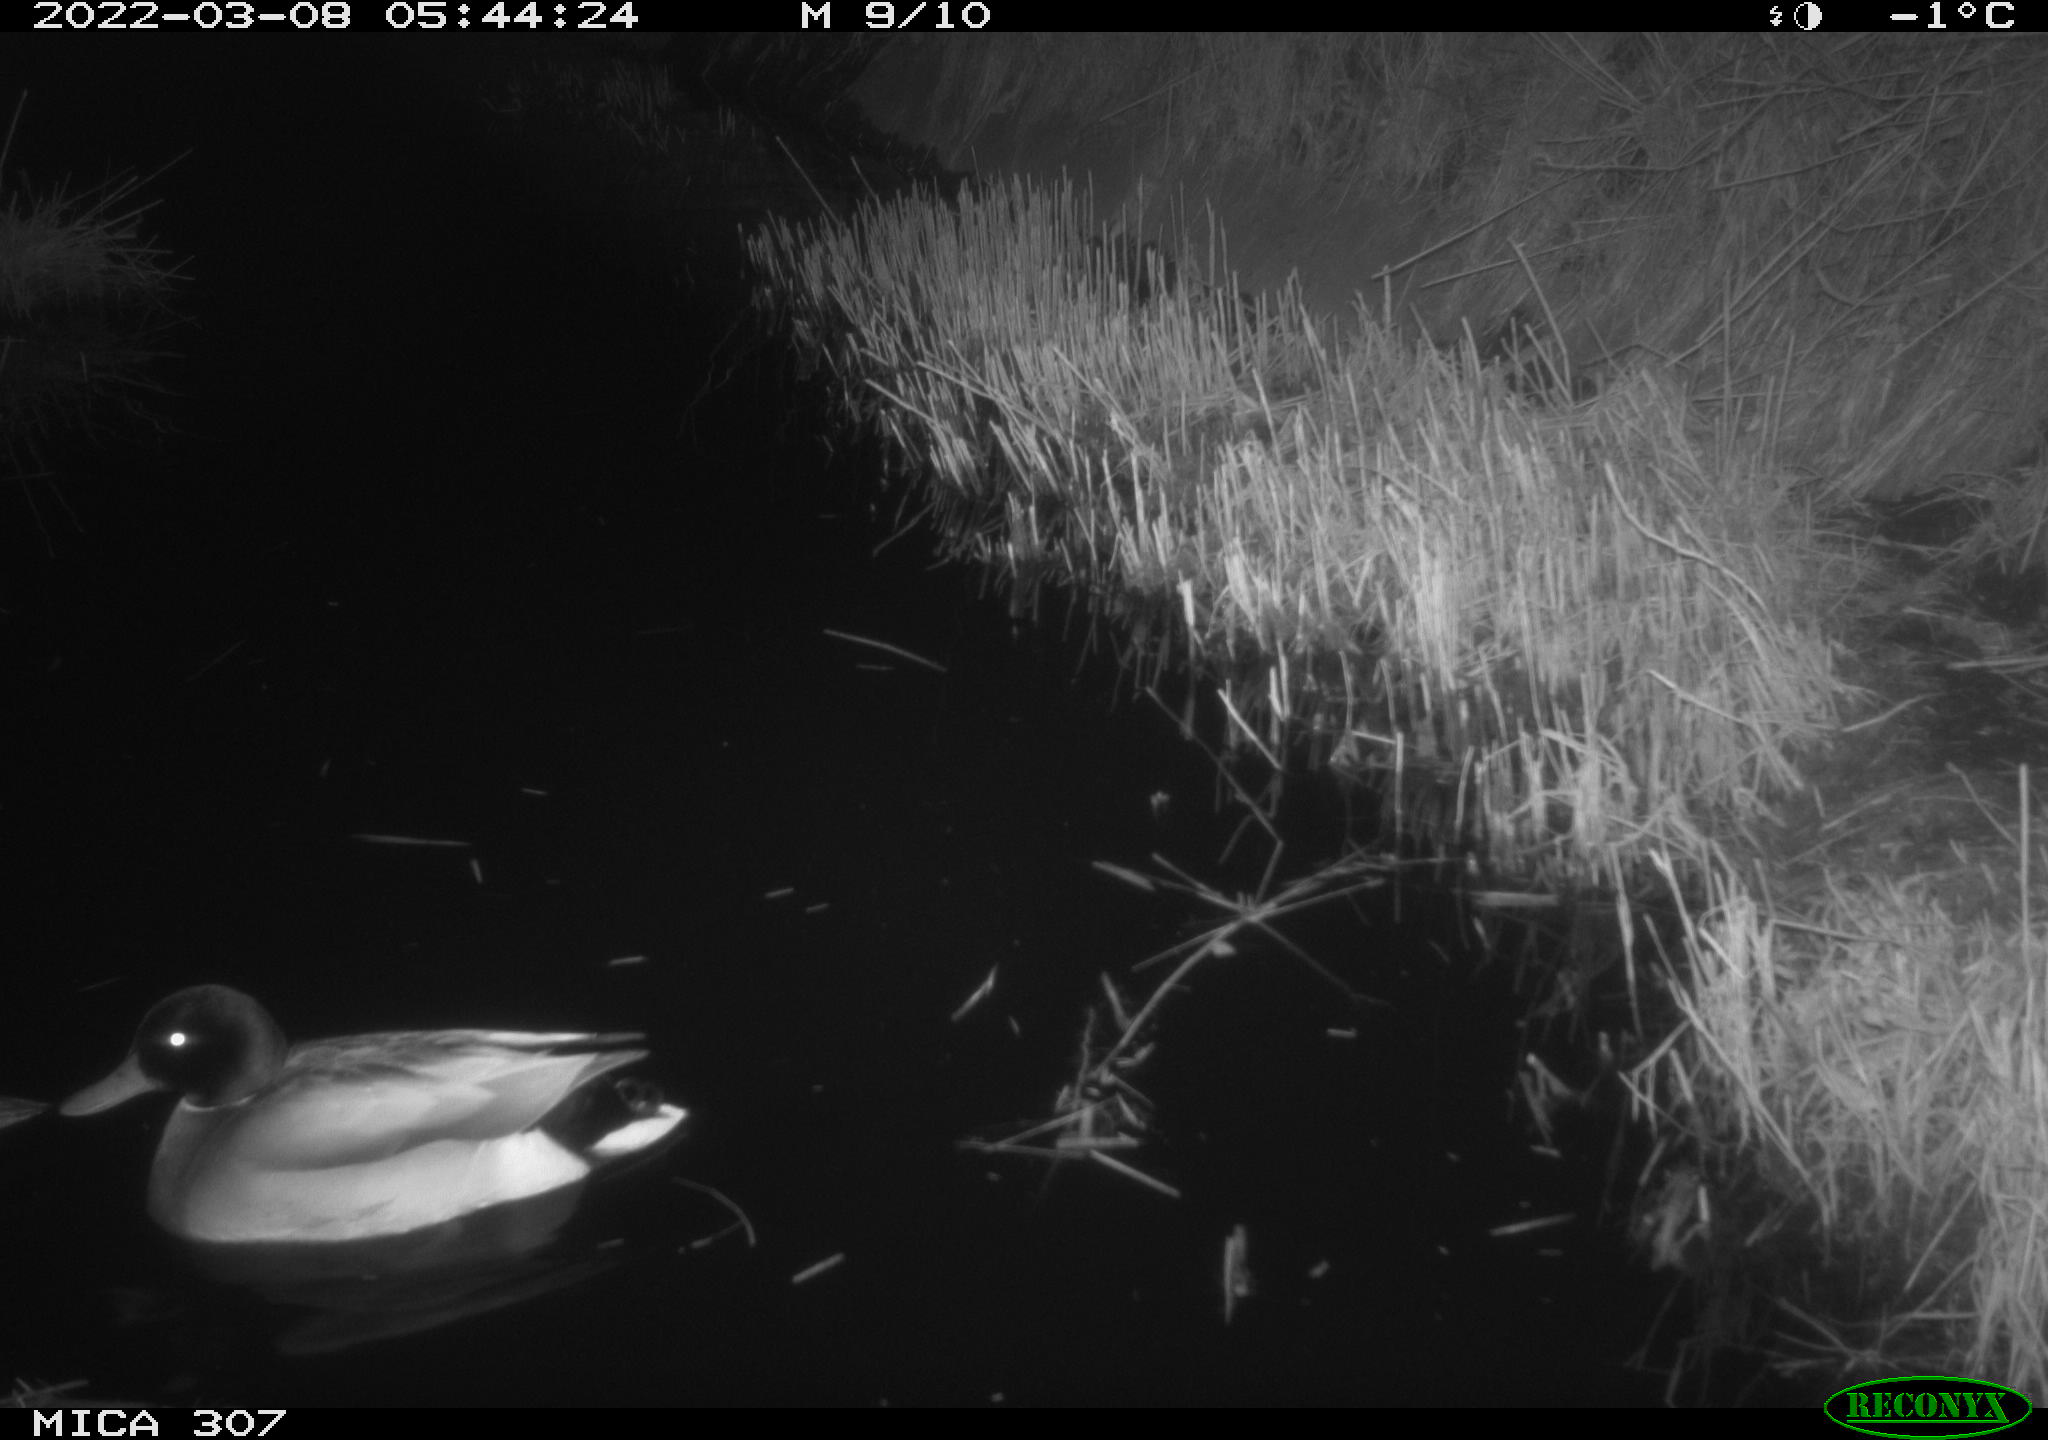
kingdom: Animalia
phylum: Chordata
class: Aves
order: Anseriformes
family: Anatidae
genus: Anas
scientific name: Anas platyrhynchos
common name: Mallard
